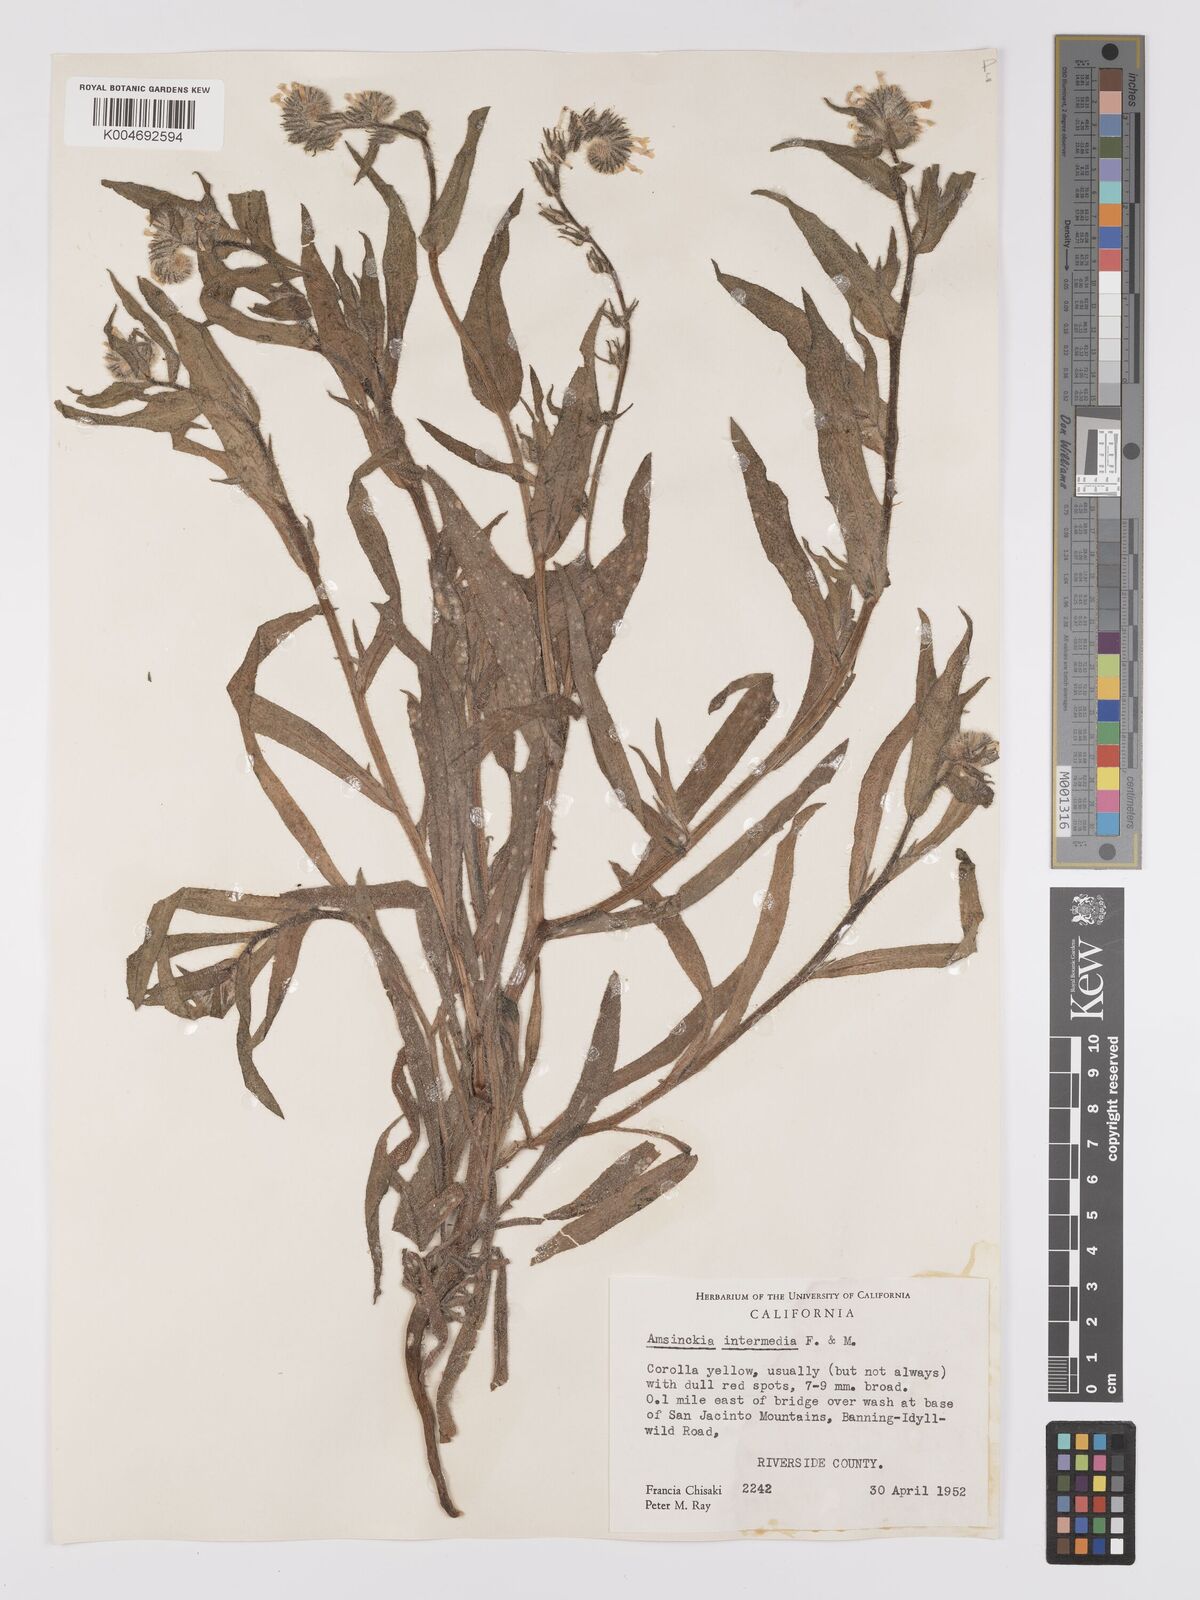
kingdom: Plantae
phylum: Tracheophyta
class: Magnoliopsida
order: Boraginales
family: Boraginaceae
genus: Amsinckia
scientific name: Amsinckia menziesii
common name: Menzies' fiddleneck
